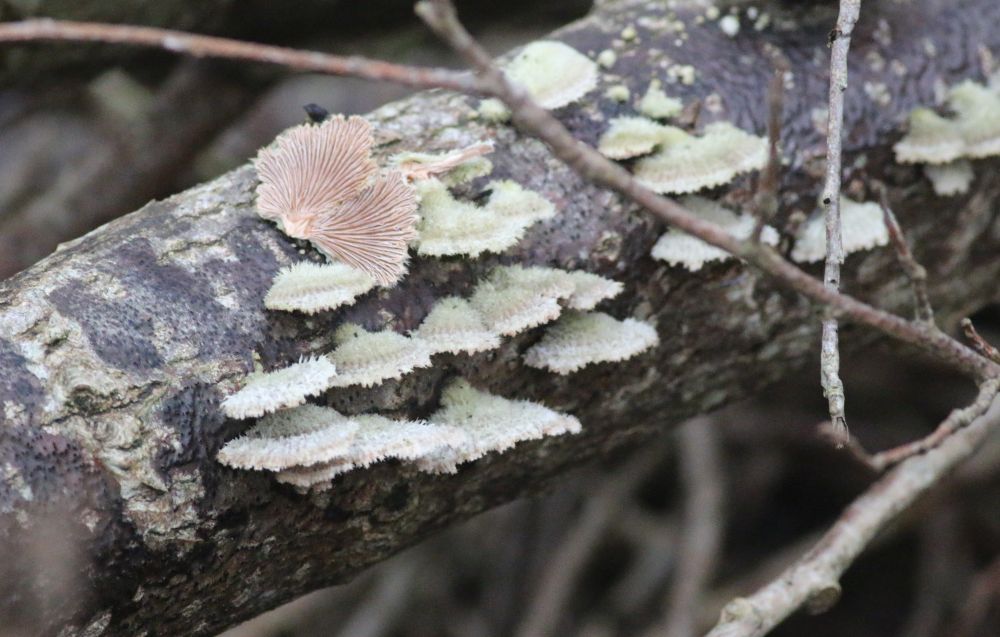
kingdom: Fungi
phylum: Basidiomycota
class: Agaricomycetes
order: Agaricales
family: Schizophyllaceae
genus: Schizophyllum
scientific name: Schizophyllum commune
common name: kløvblad
